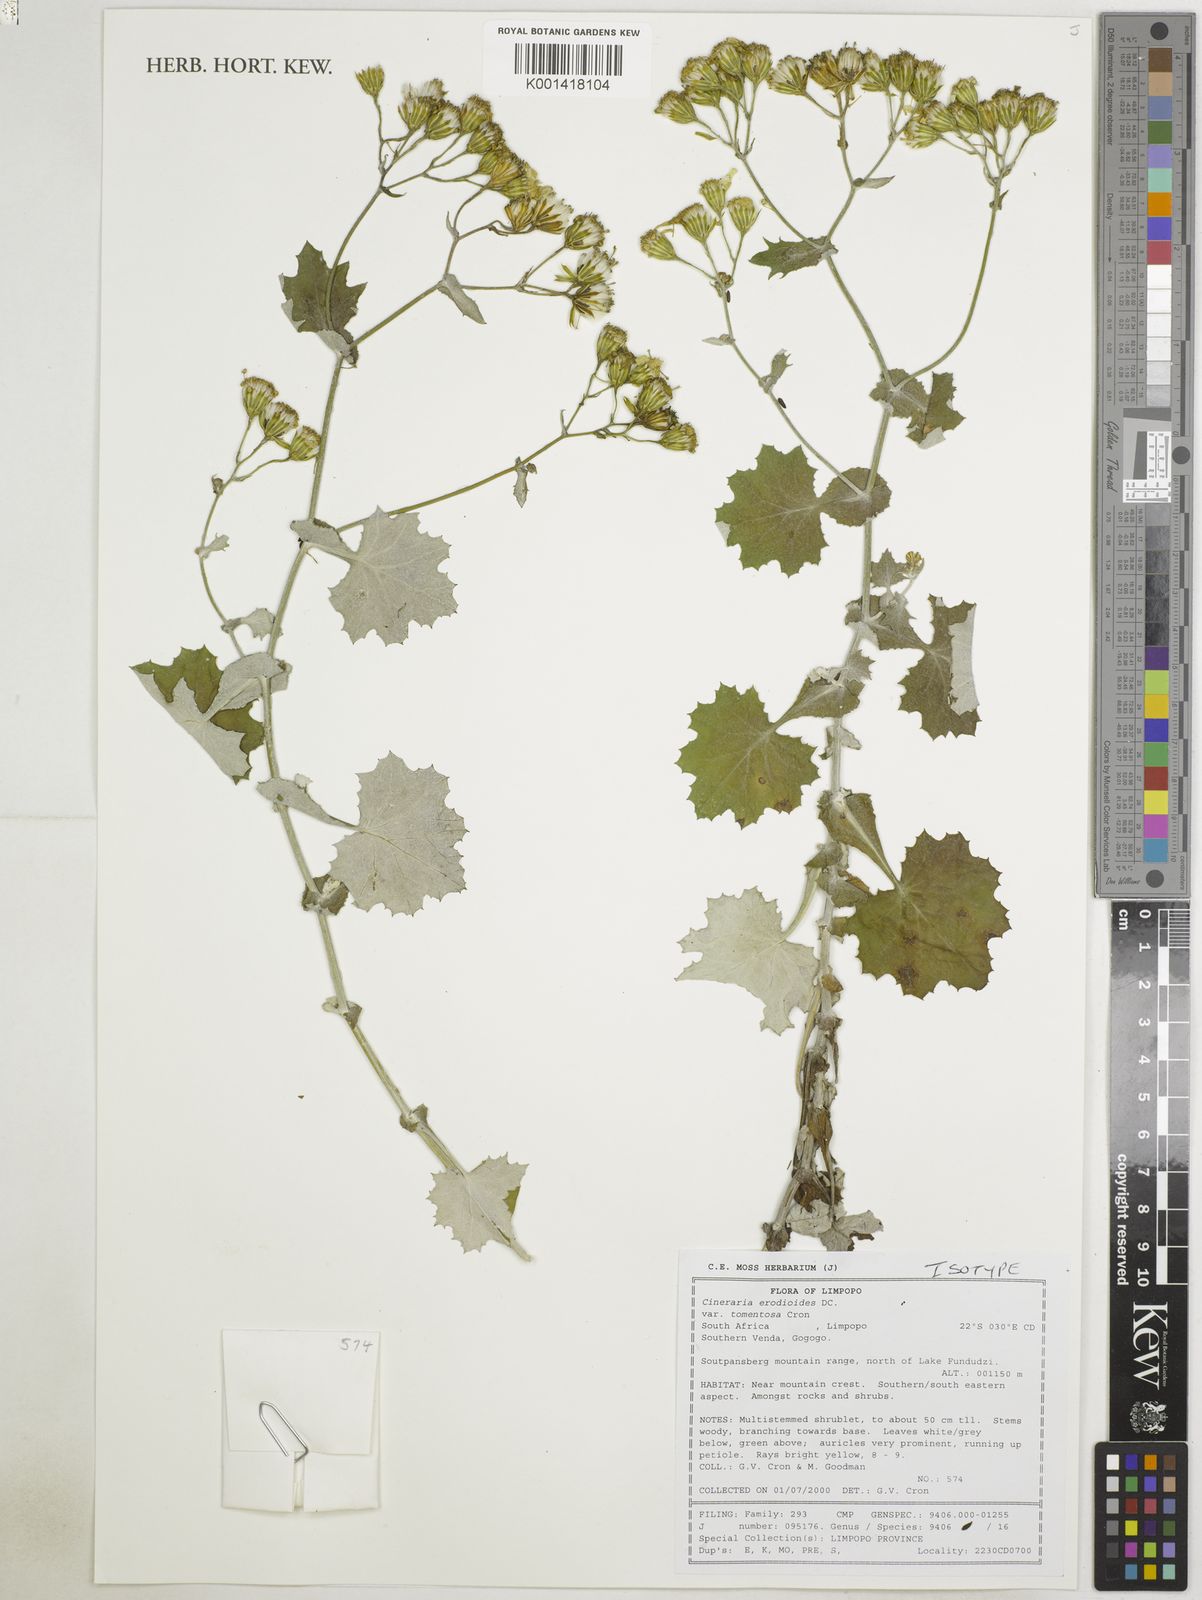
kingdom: Plantae
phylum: Tracheophyta
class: Magnoliopsida
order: Asterales
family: Asteraceae
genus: Cineraria
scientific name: Cineraria erodioides
